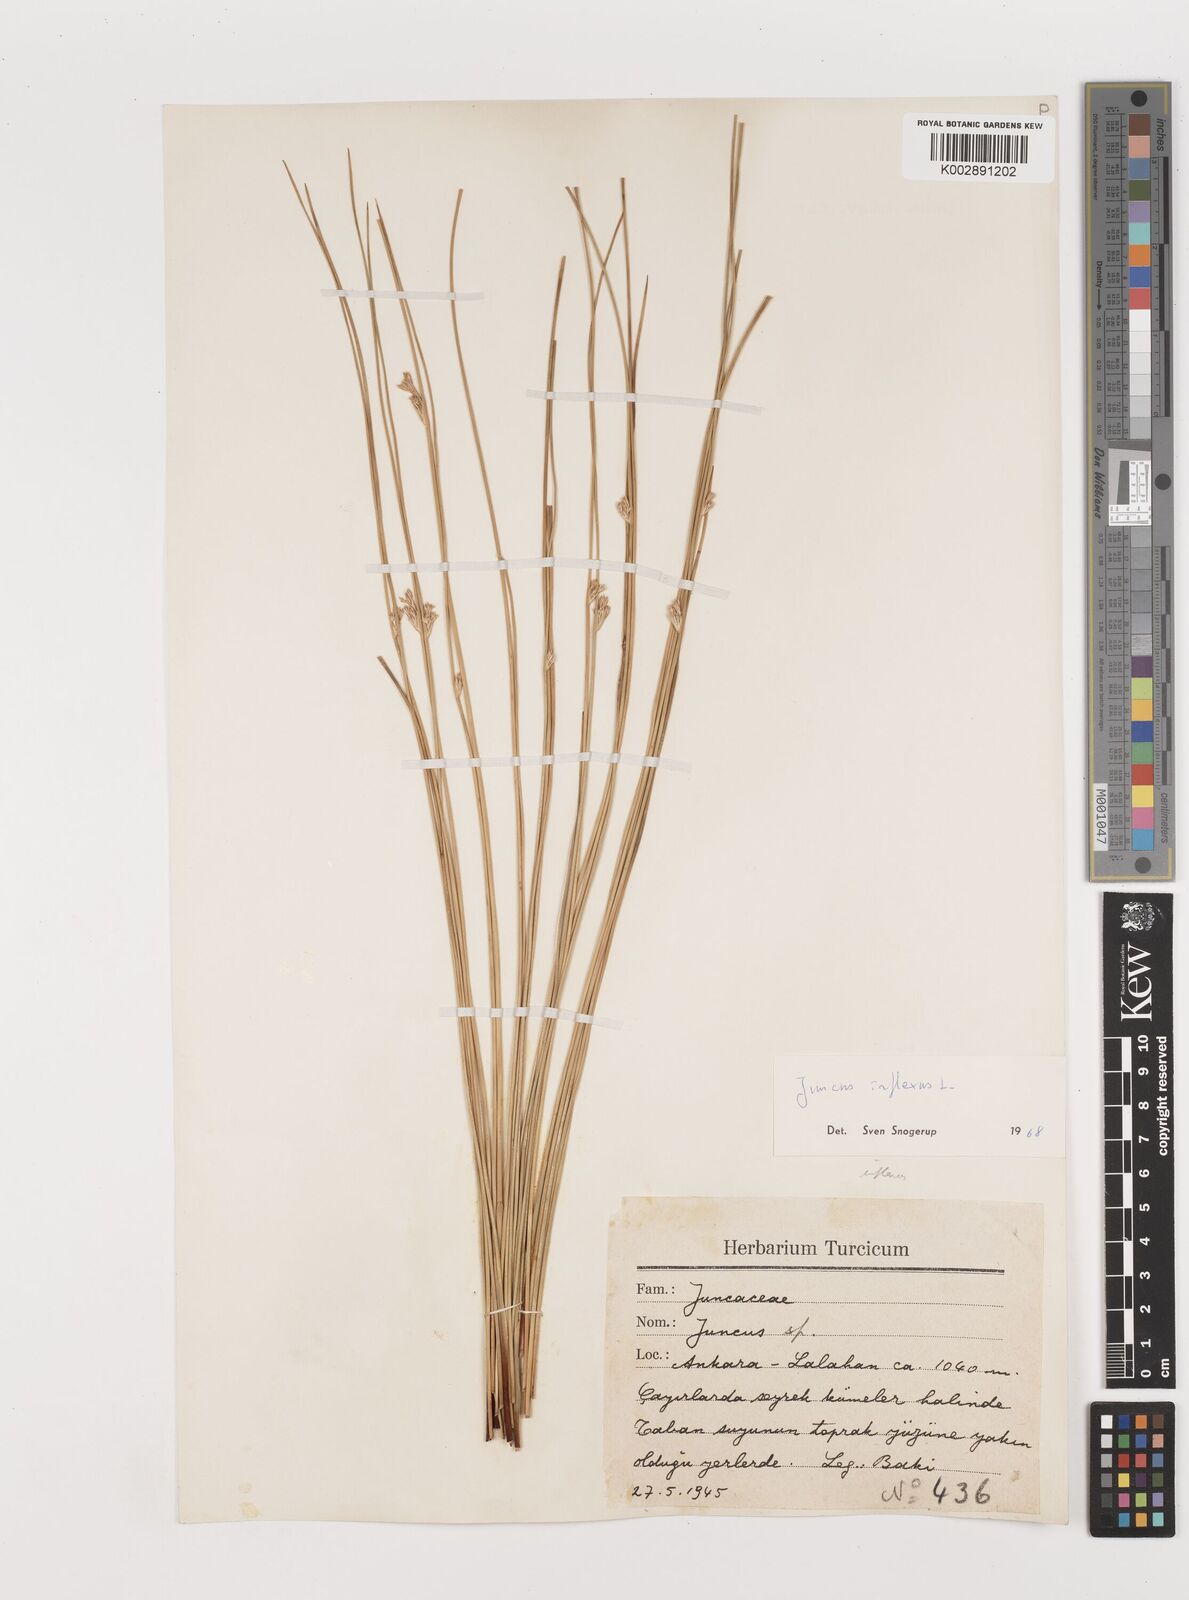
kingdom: Plantae
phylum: Tracheophyta
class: Liliopsida
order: Poales
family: Juncaceae
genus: Juncus
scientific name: Juncus inflexus
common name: Hard rush
